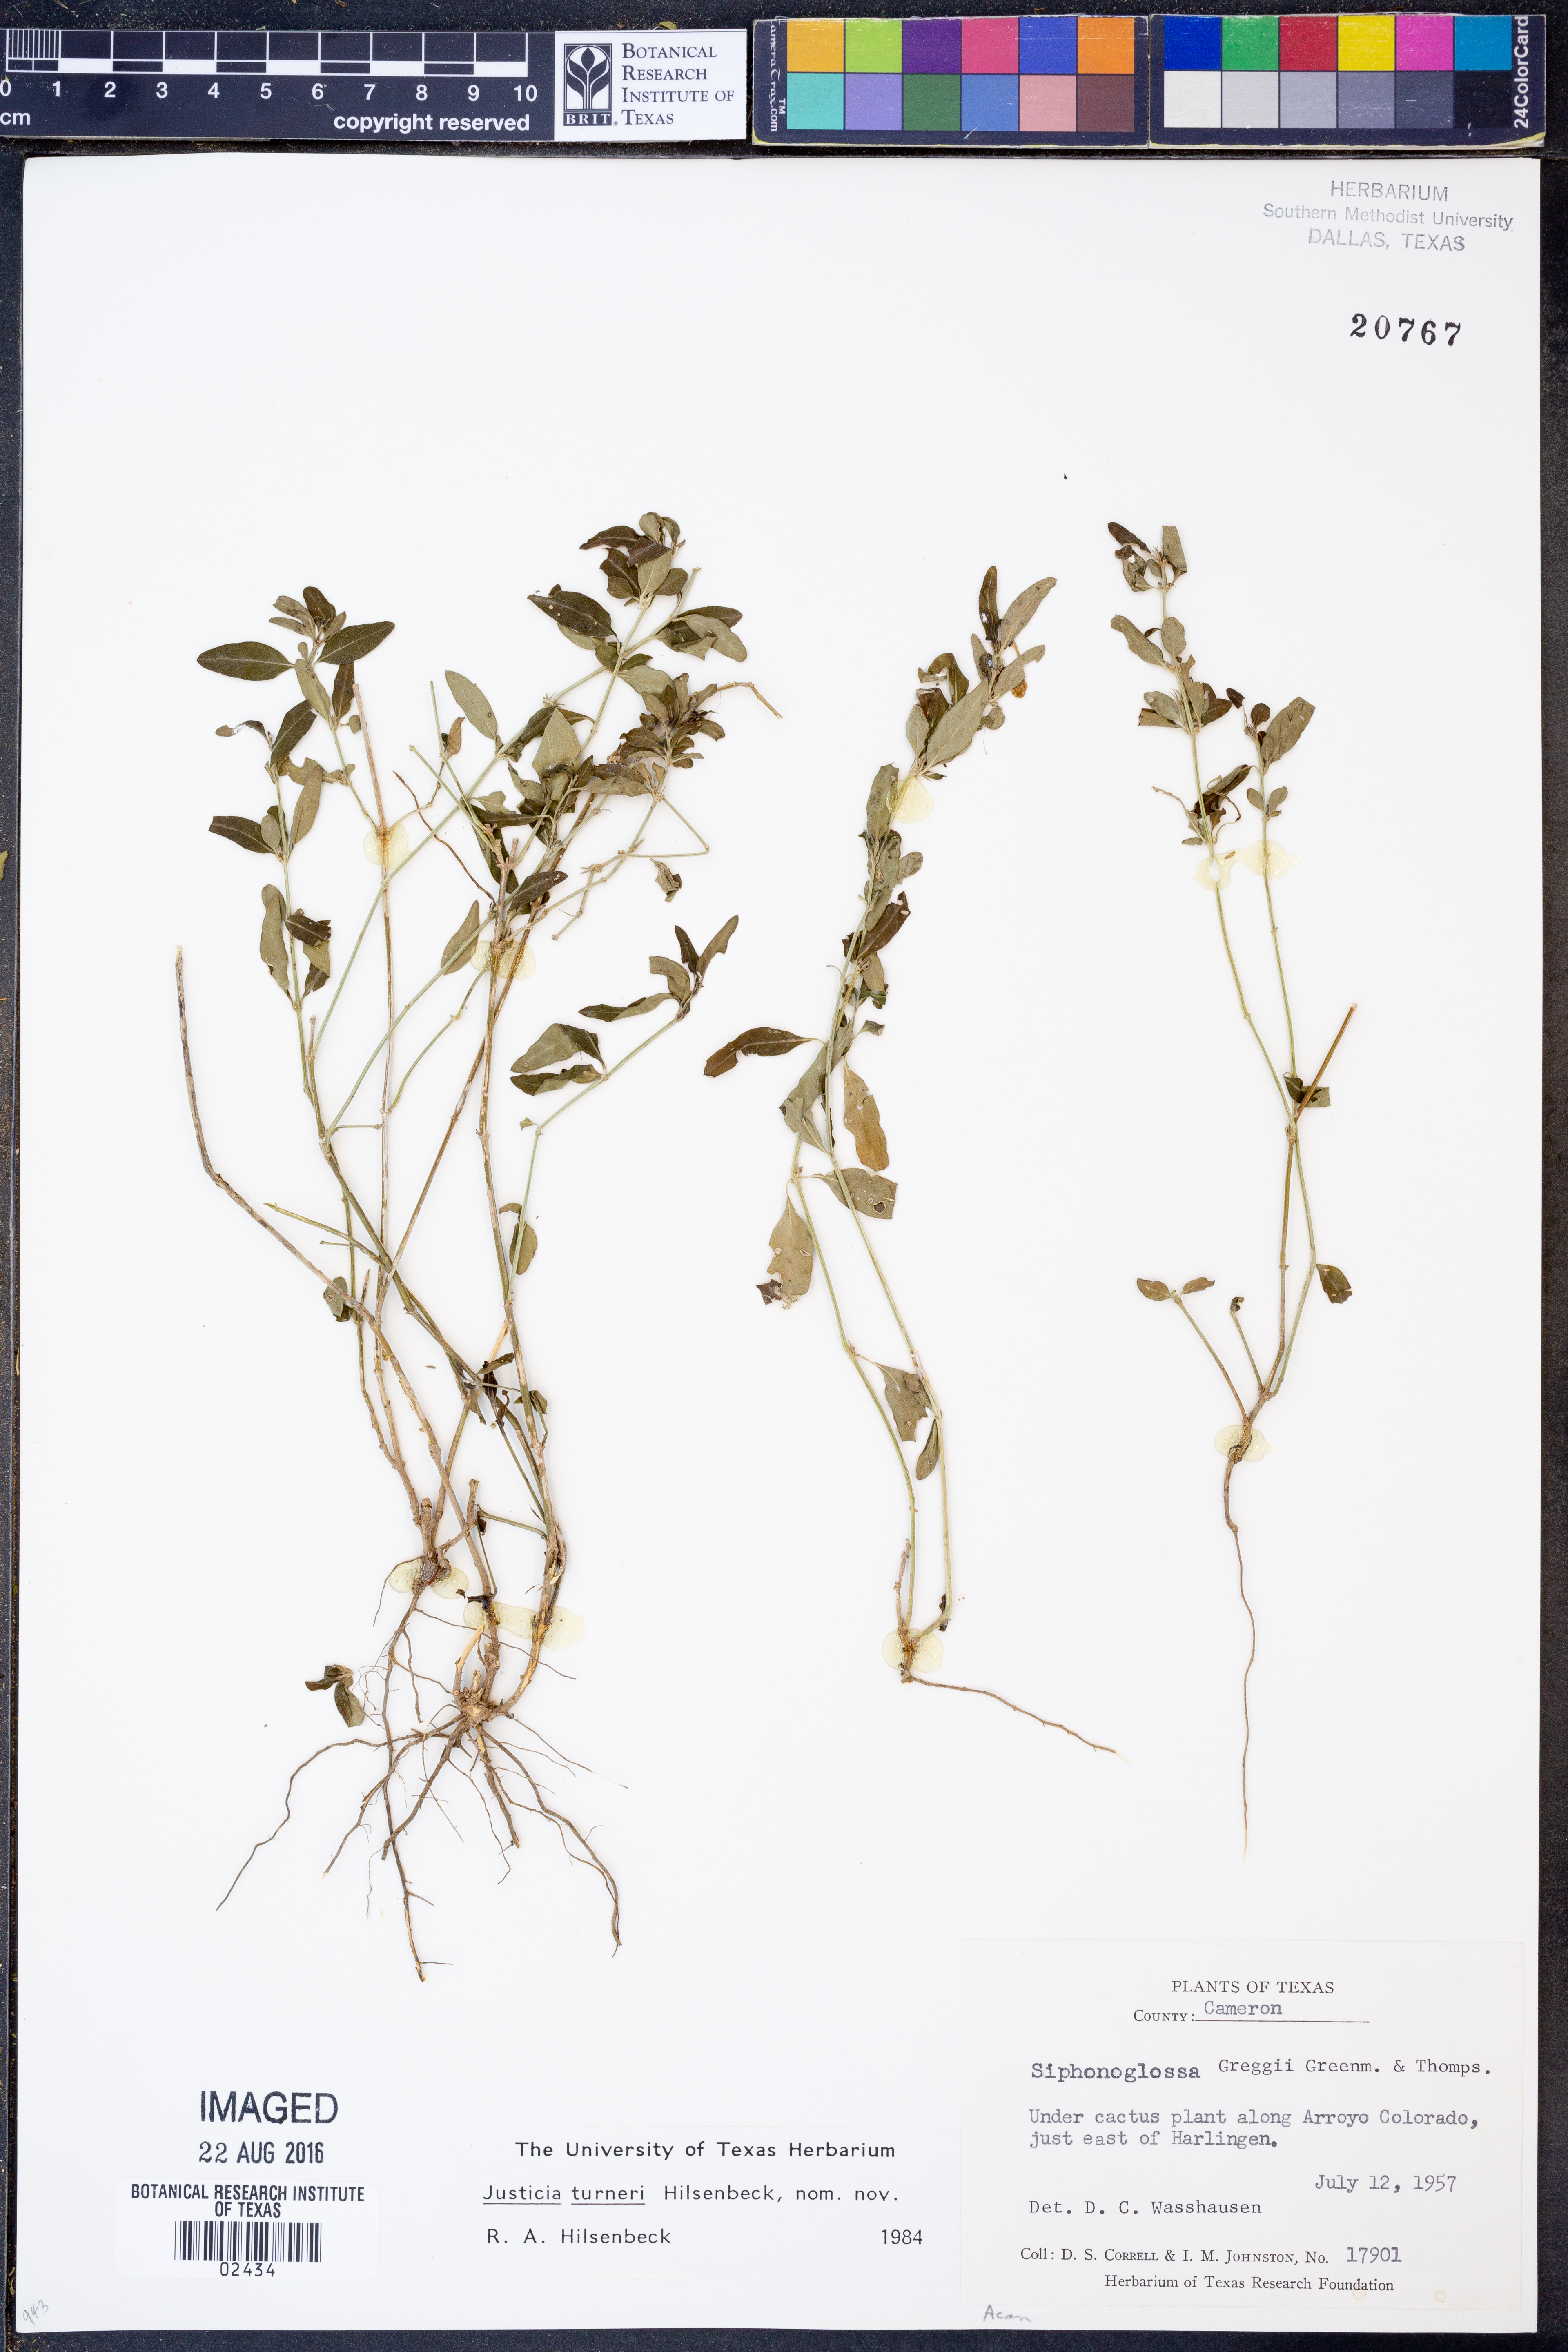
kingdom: Plantae
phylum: Tracheophyta
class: Magnoliopsida
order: Lamiales
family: Acanthaceae
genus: Justicia
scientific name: Justicia turneri
